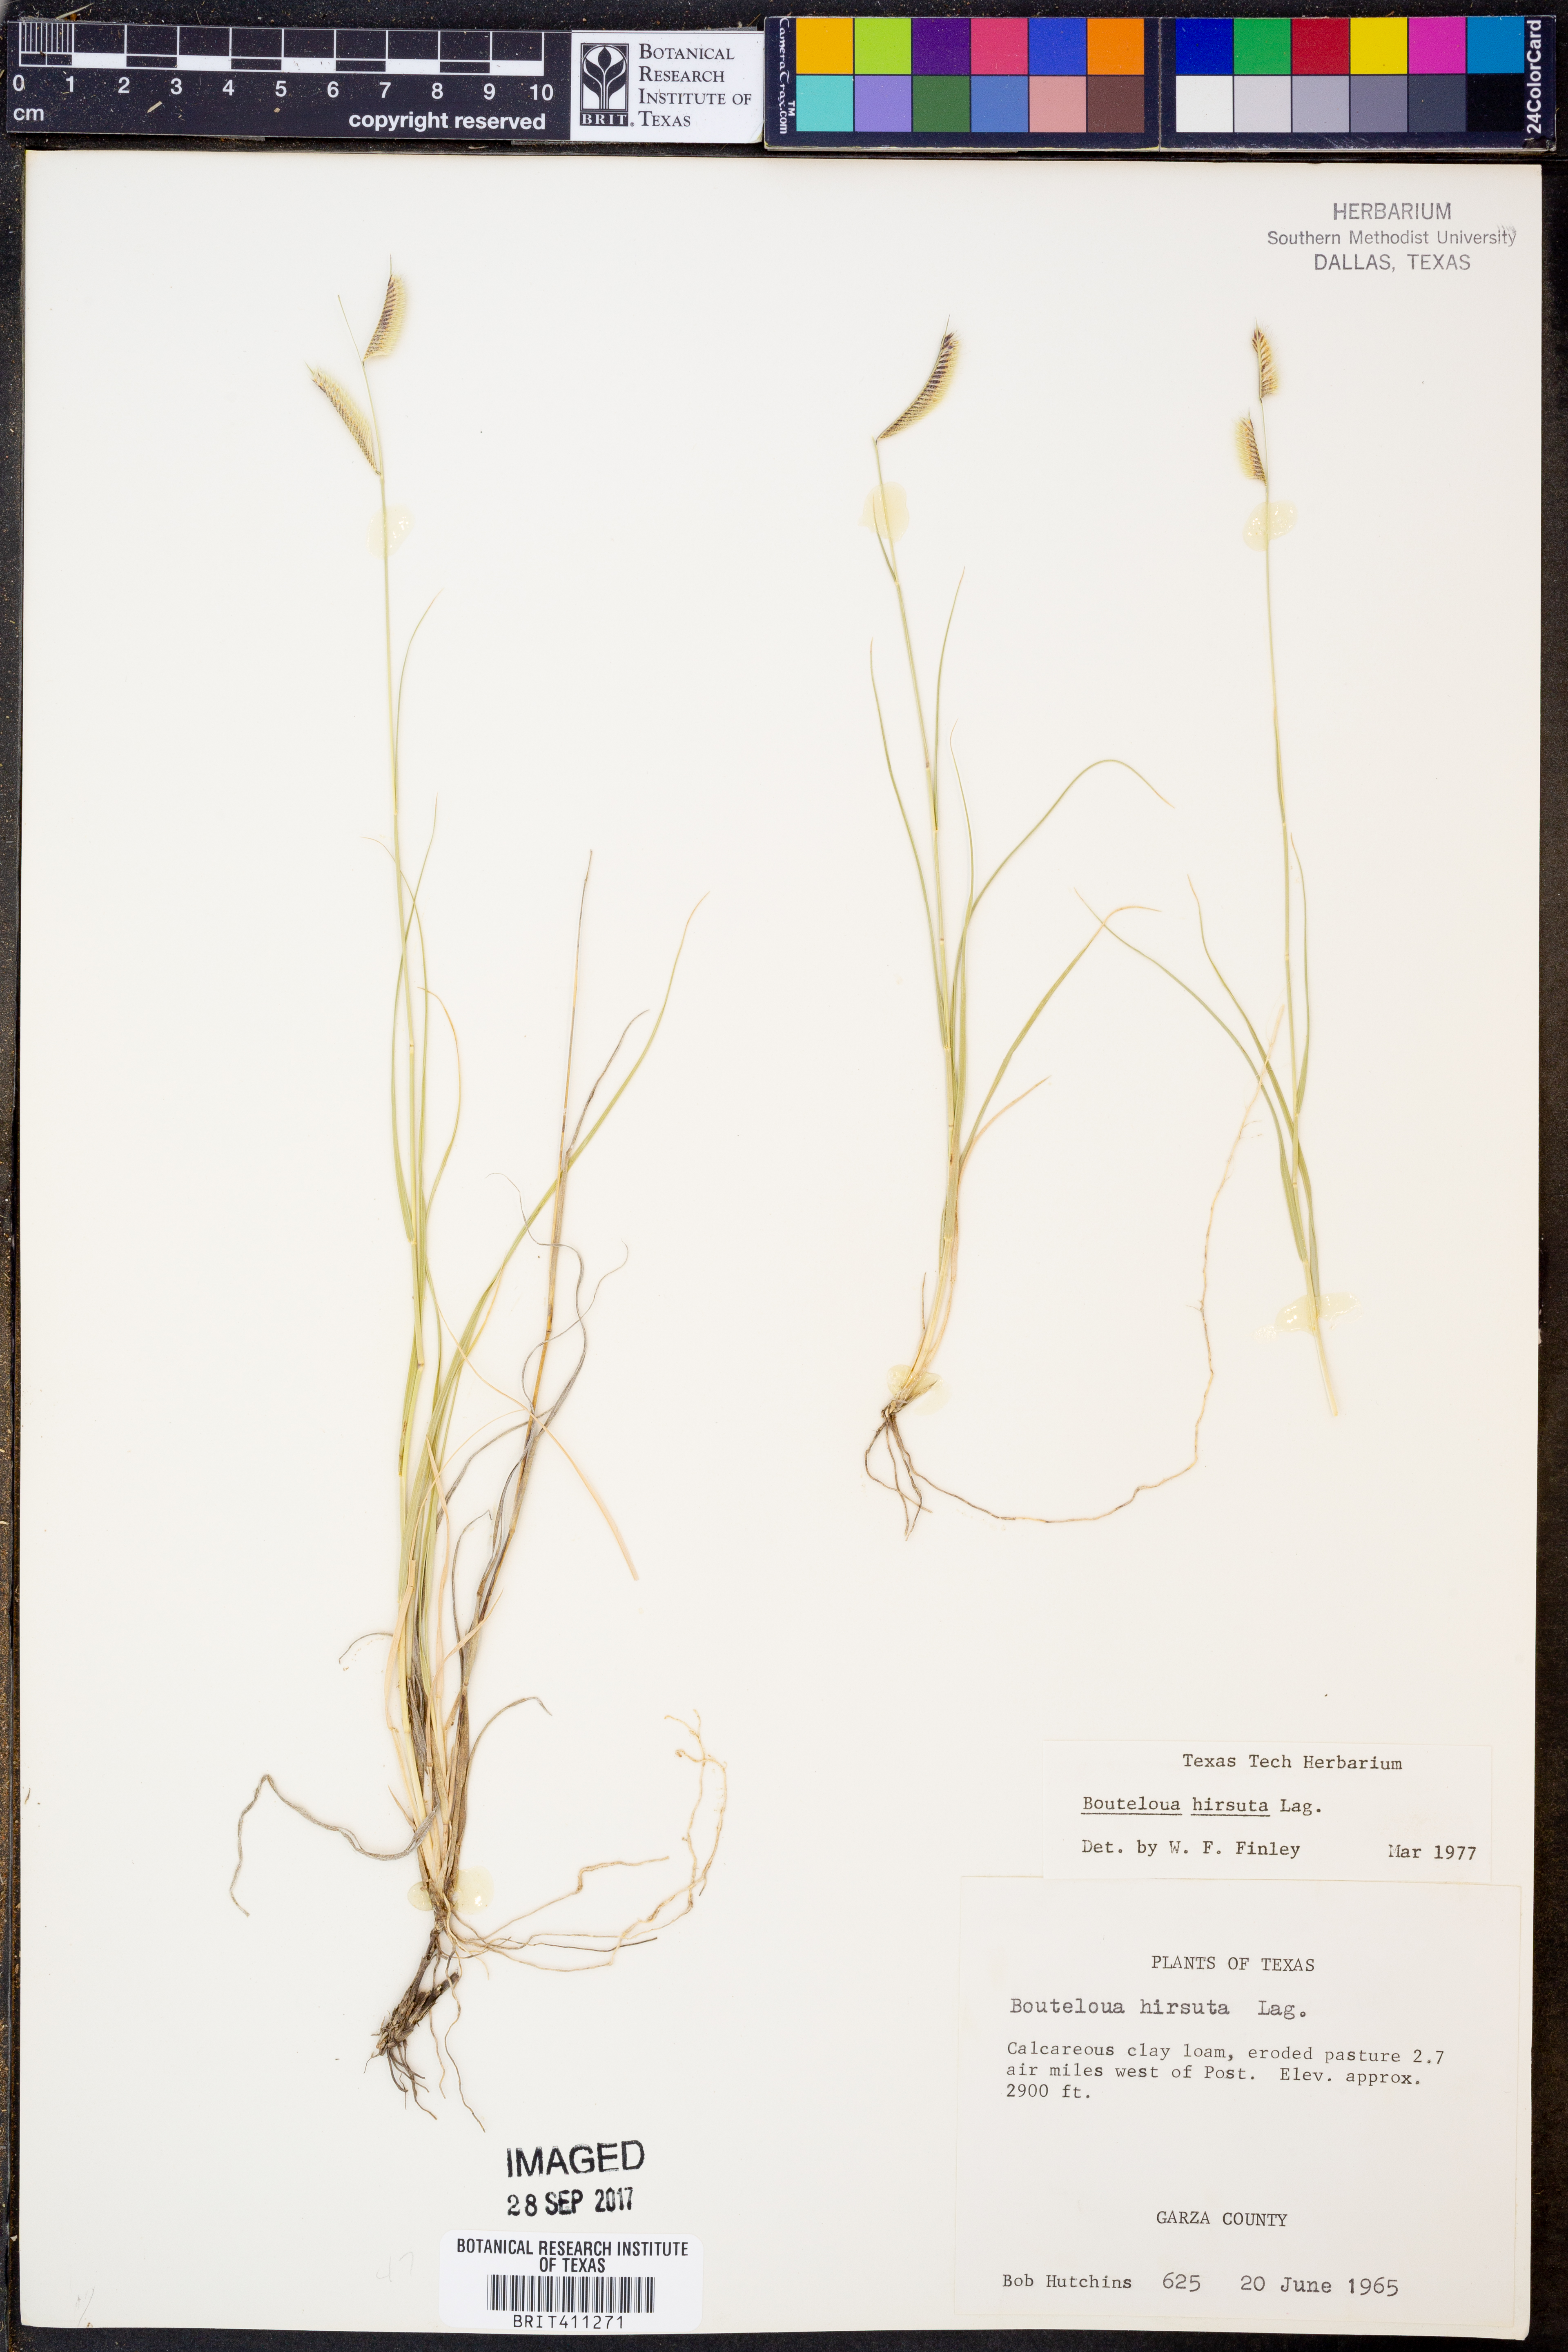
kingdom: Plantae
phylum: Tracheophyta
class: Liliopsida
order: Poales
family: Poaceae
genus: Bouteloua
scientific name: Bouteloua hirsuta
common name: Hairy grama
